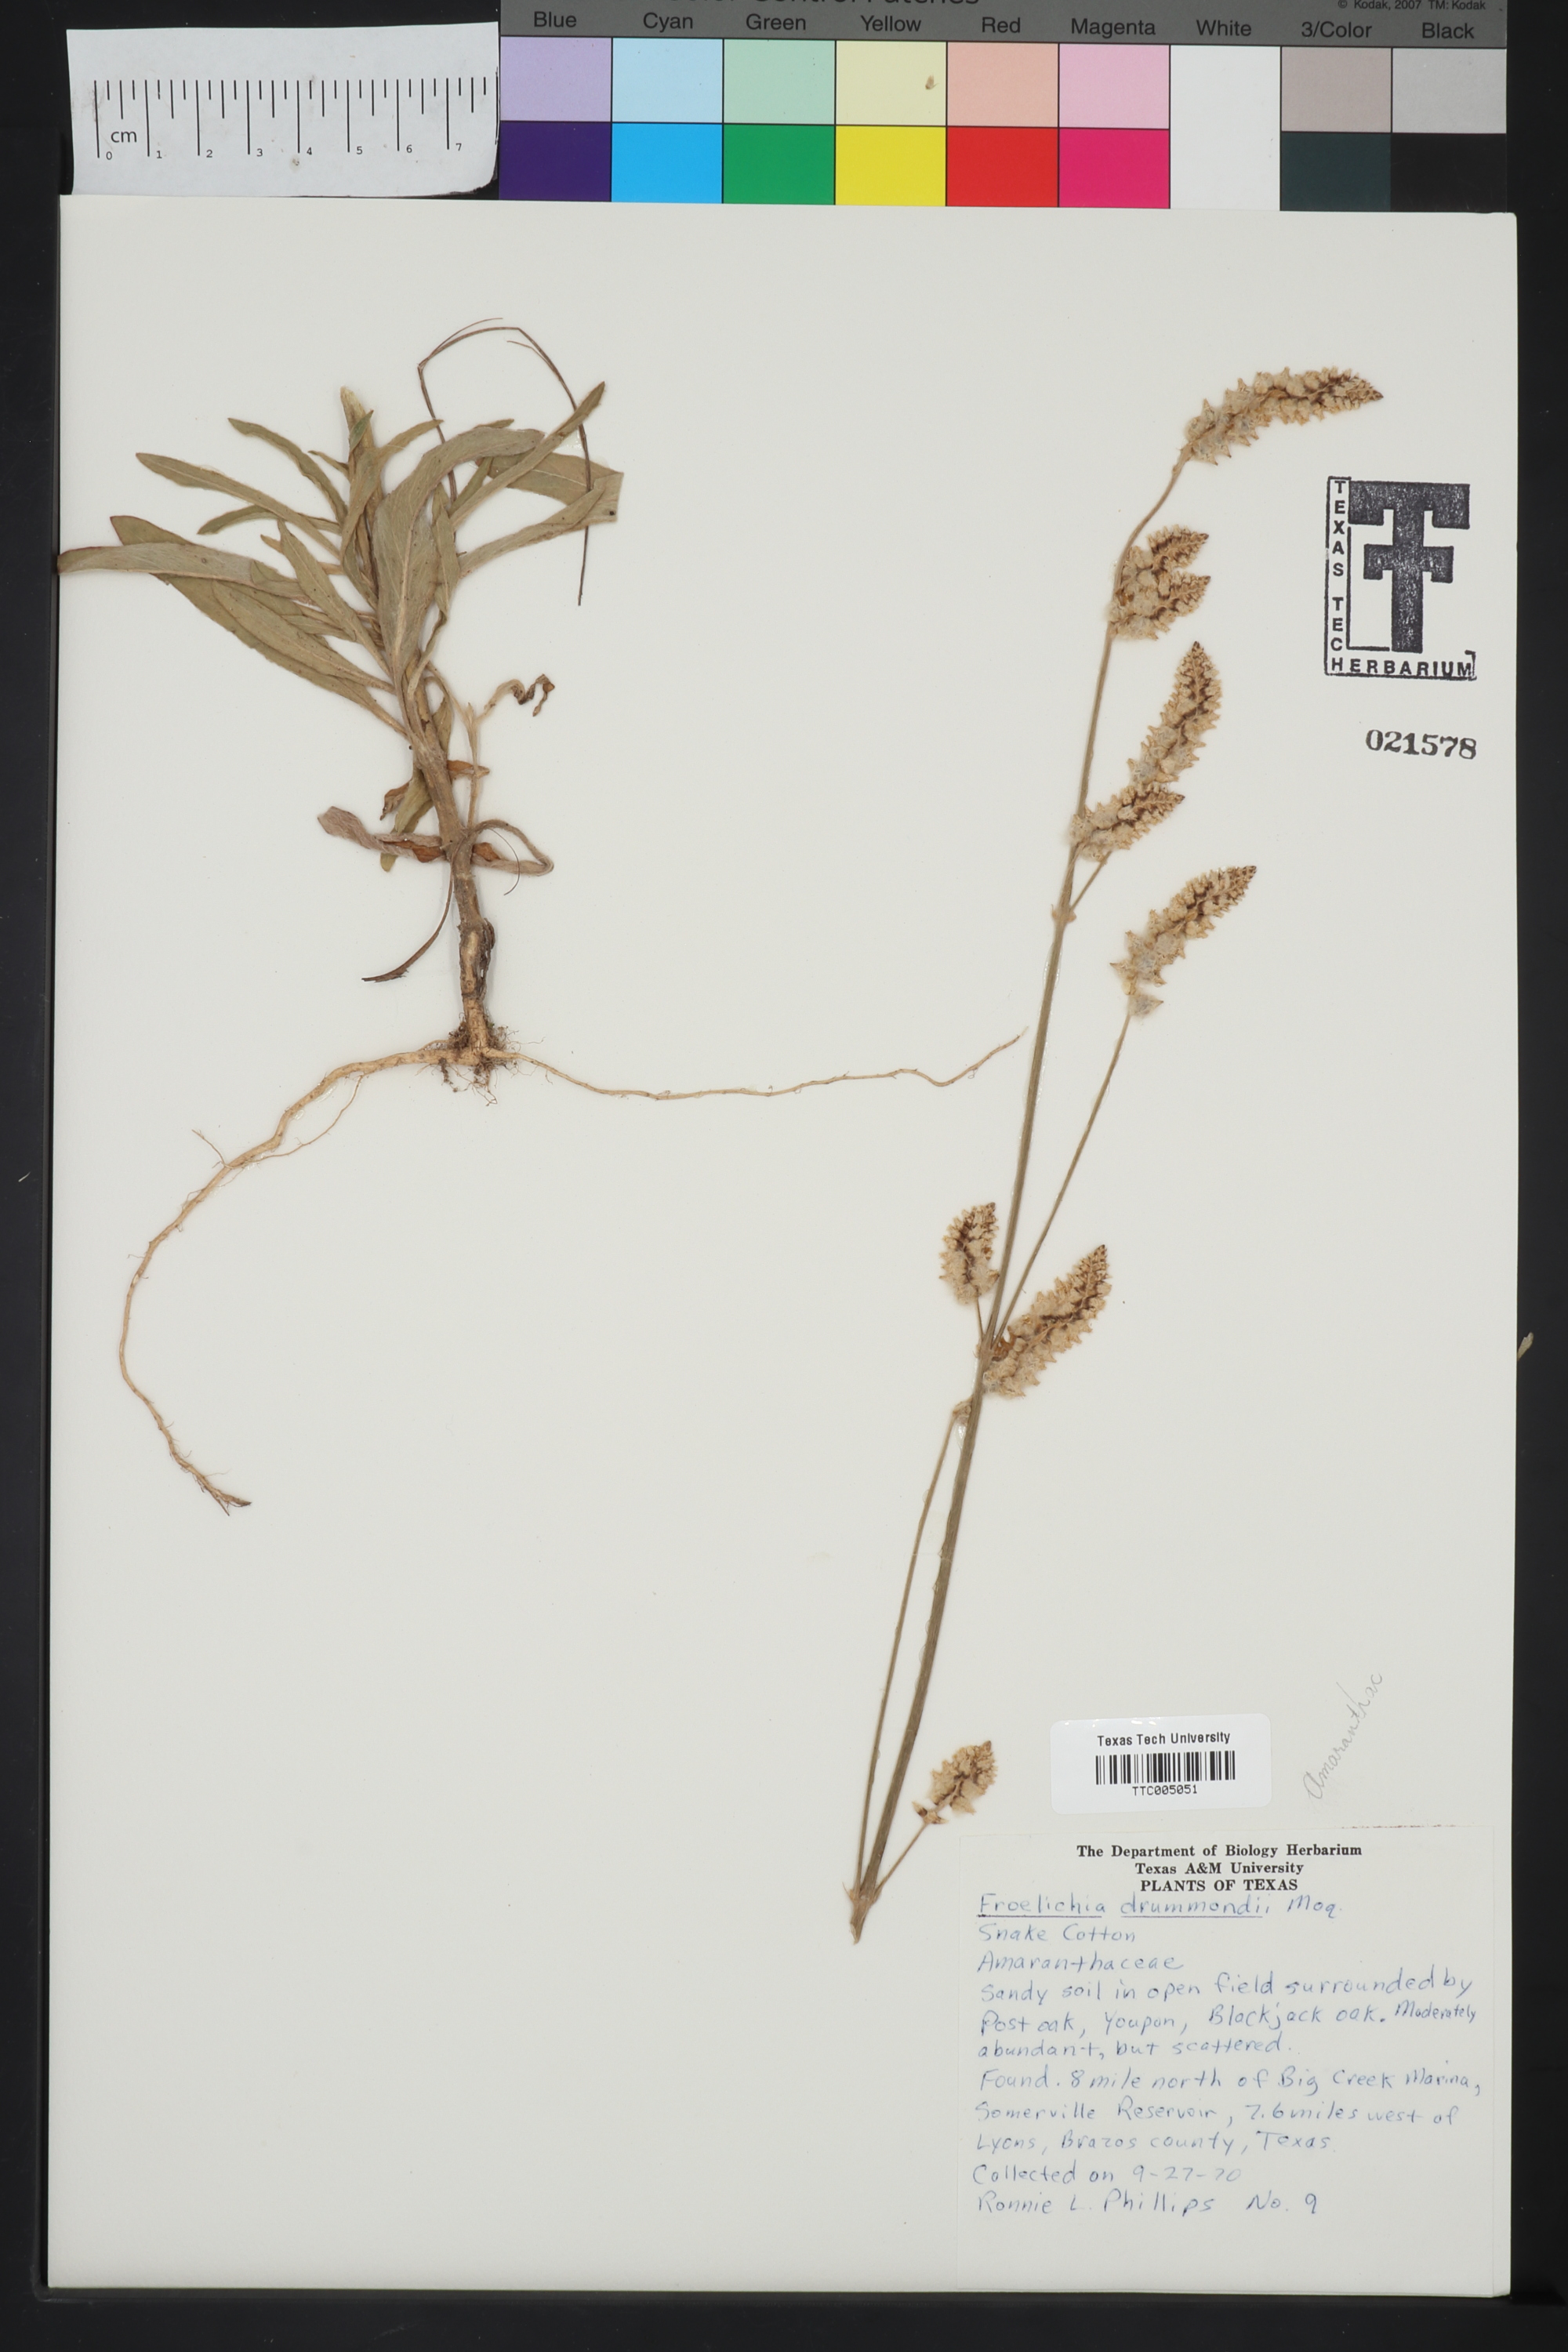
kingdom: Plantae
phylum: Tracheophyta
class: Magnoliopsida
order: Caryophyllales
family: Amaranthaceae
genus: Froelichia
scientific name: Froelichia drummondii
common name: Drummond's snake-cotton
